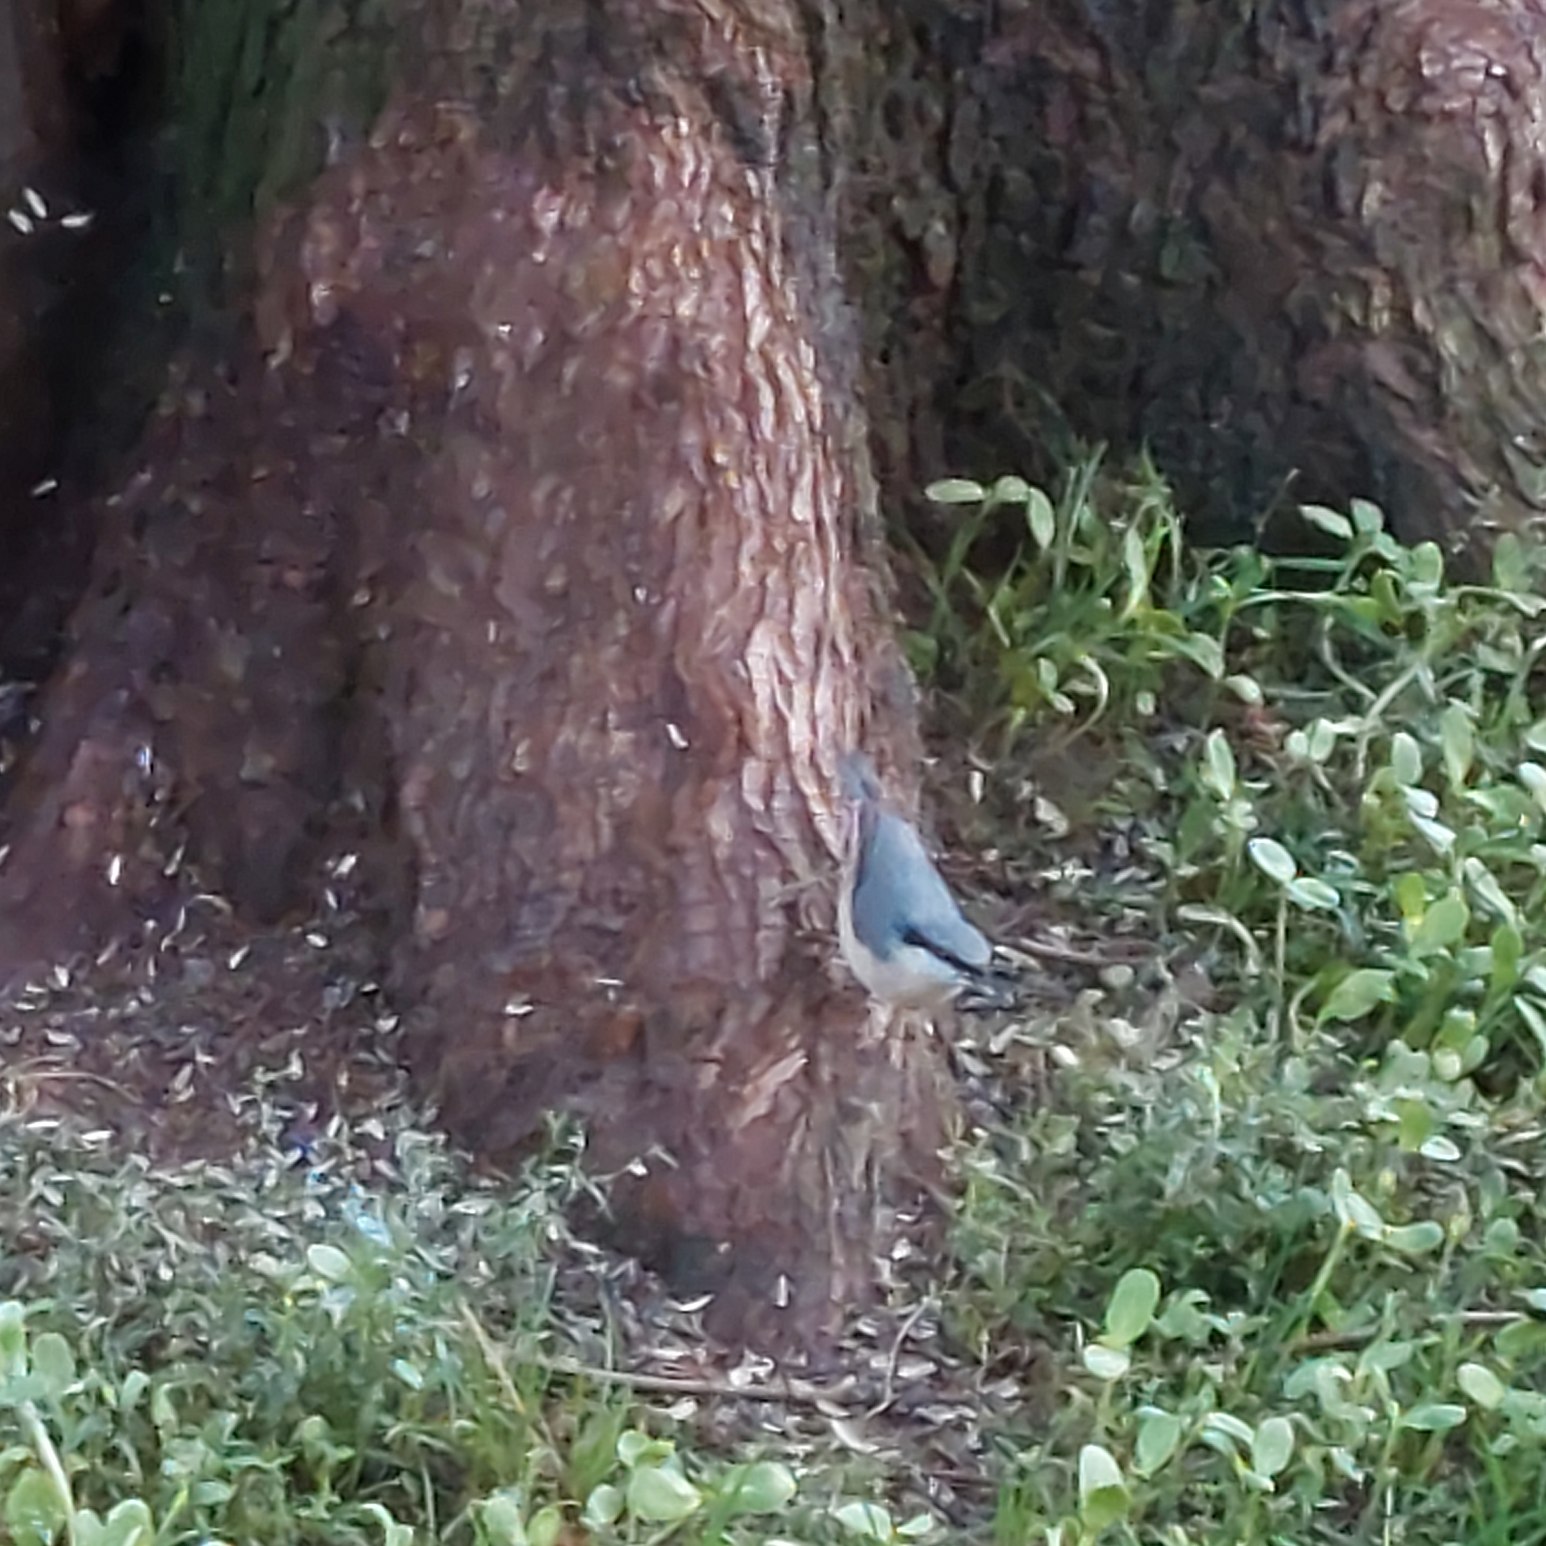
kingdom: Animalia
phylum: Chordata
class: Aves
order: Passeriformes
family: Sittidae
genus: Sitta
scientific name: Sitta europaea
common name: Spætmejse
